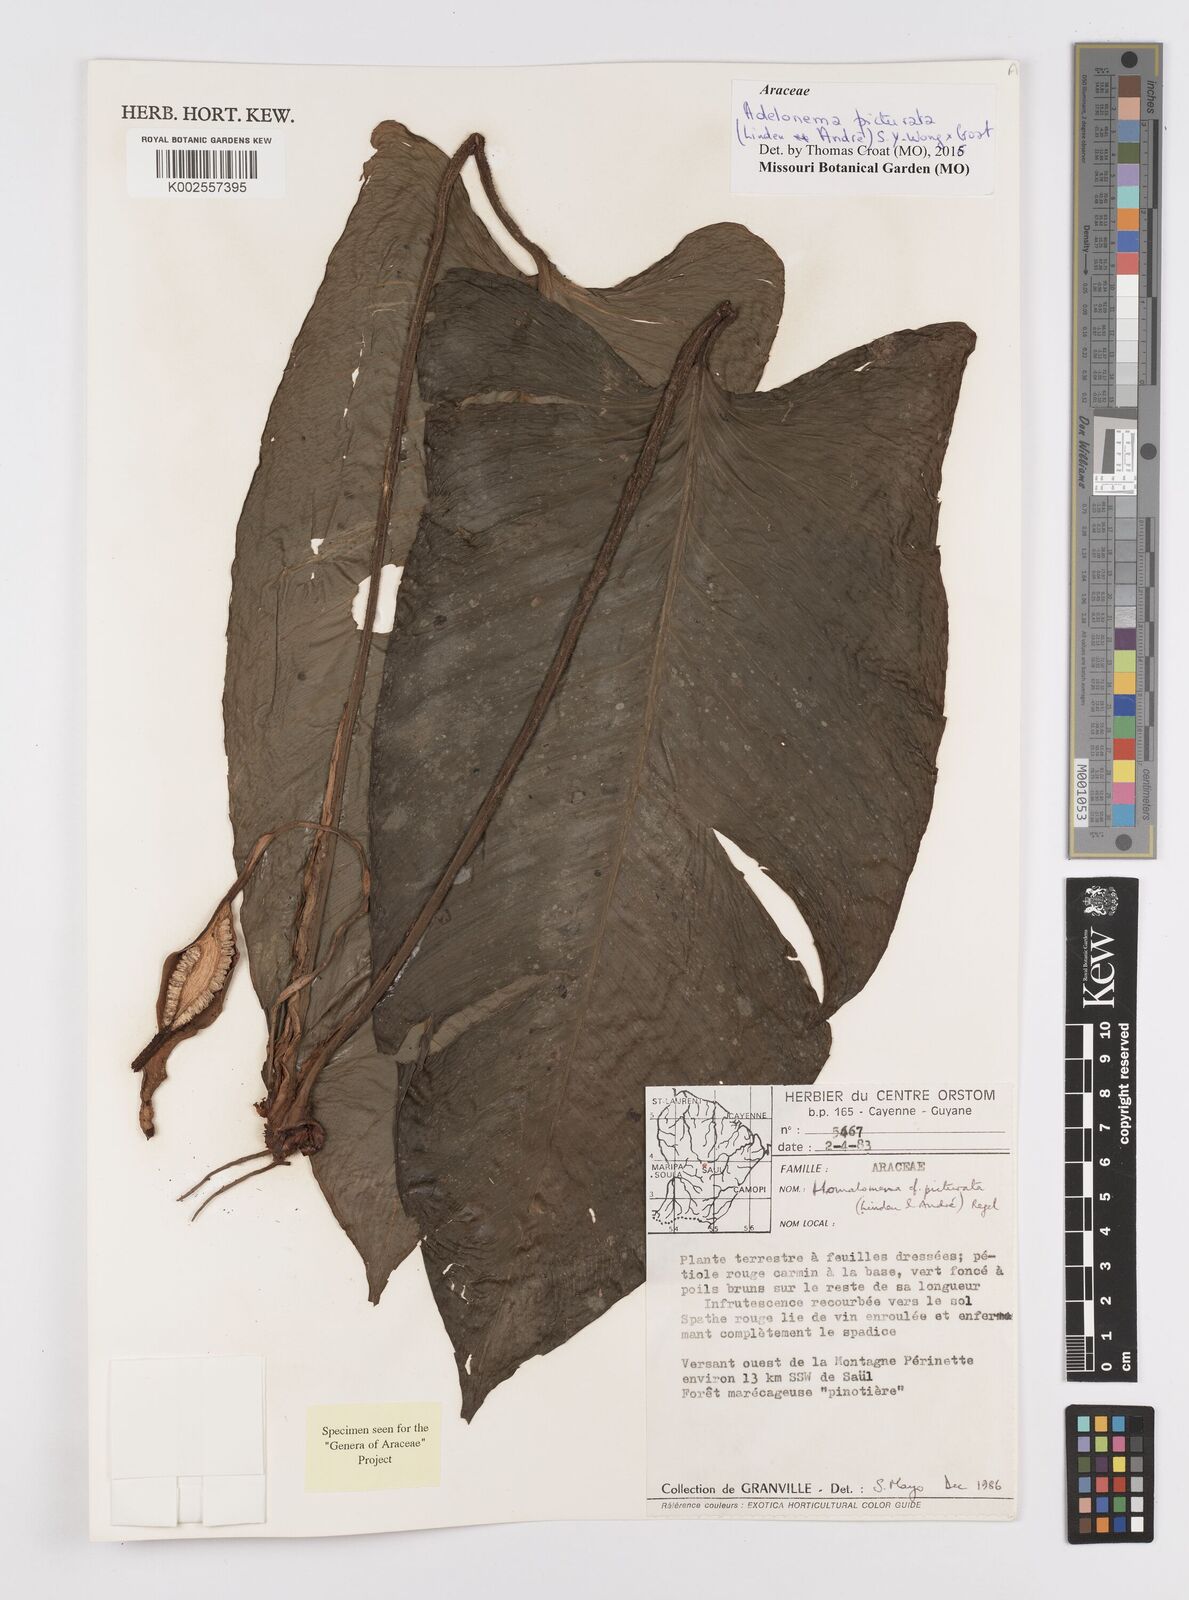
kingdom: Plantae
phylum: Tracheophyta
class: Liliopsida
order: Alismatales
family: Araceae
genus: Adelonema
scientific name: Adelonema picturatum
